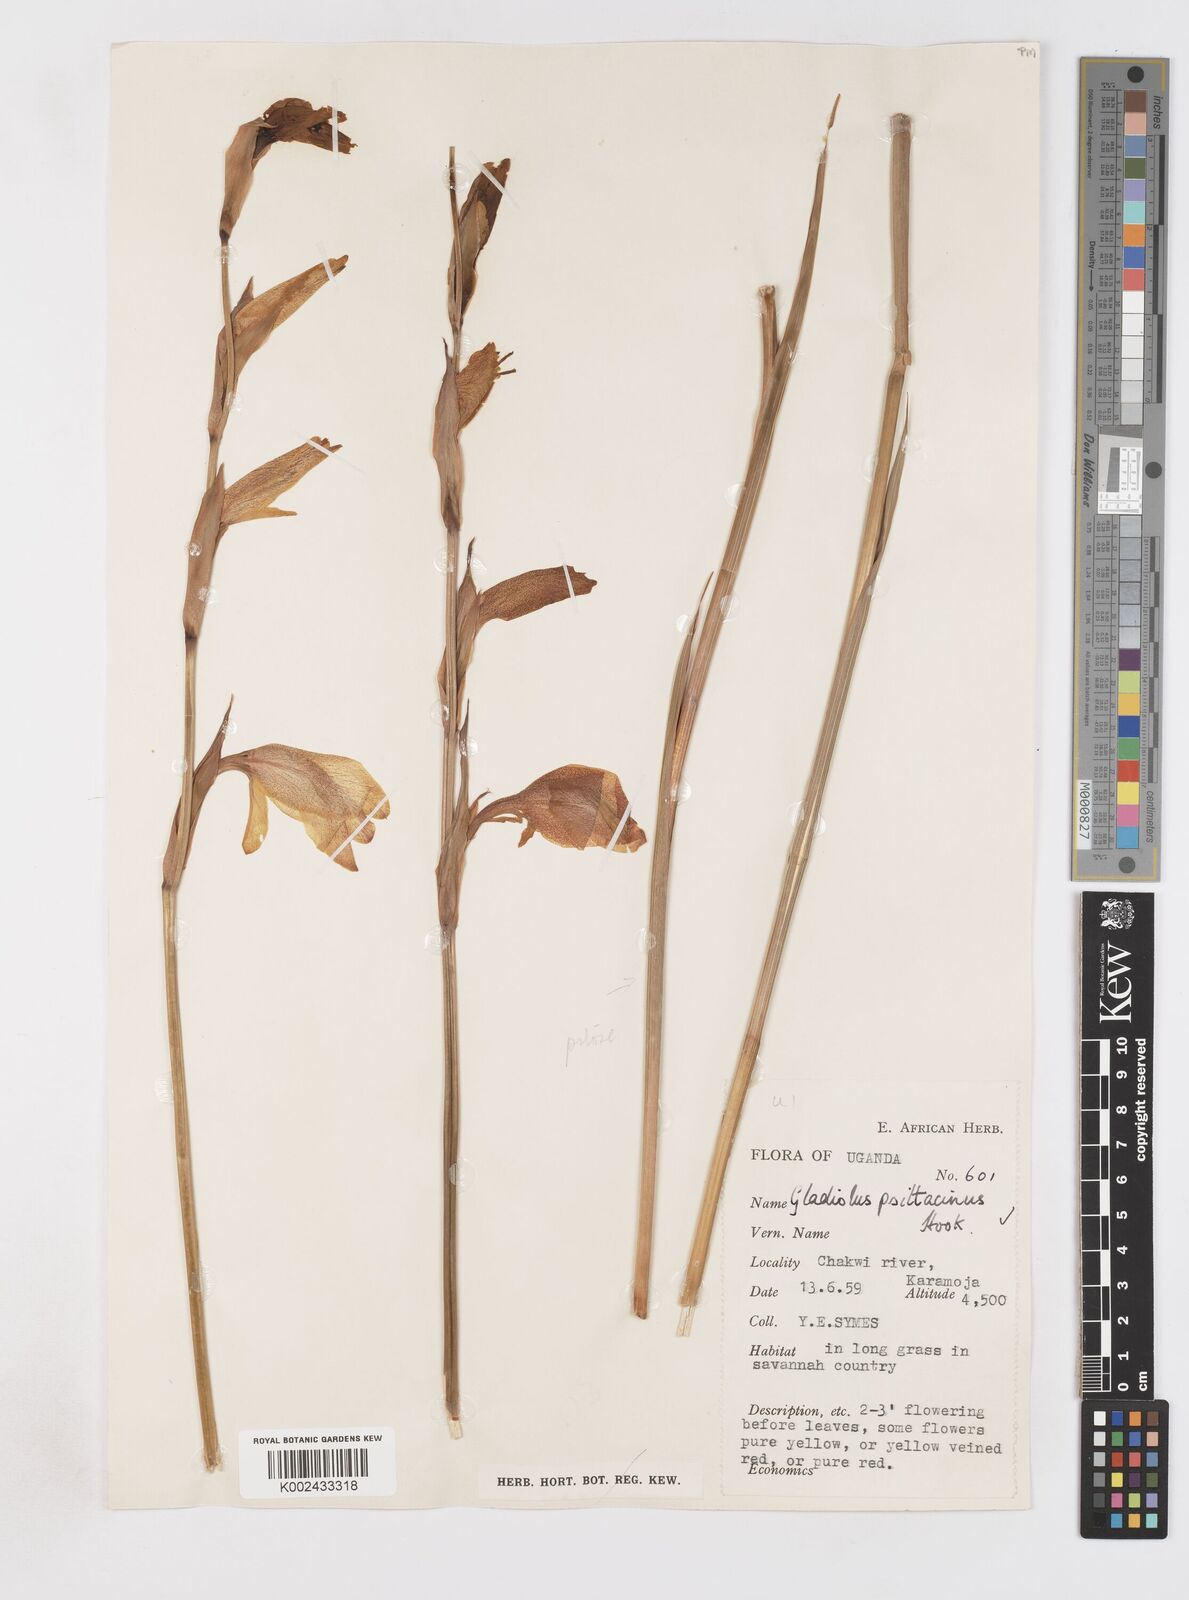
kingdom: Plantae
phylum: Tracheophyta
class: Liliopsida
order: Asparagales
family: Iridaceae
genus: Gladiolus
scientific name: Gladiolus dalenii
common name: Cornflag
